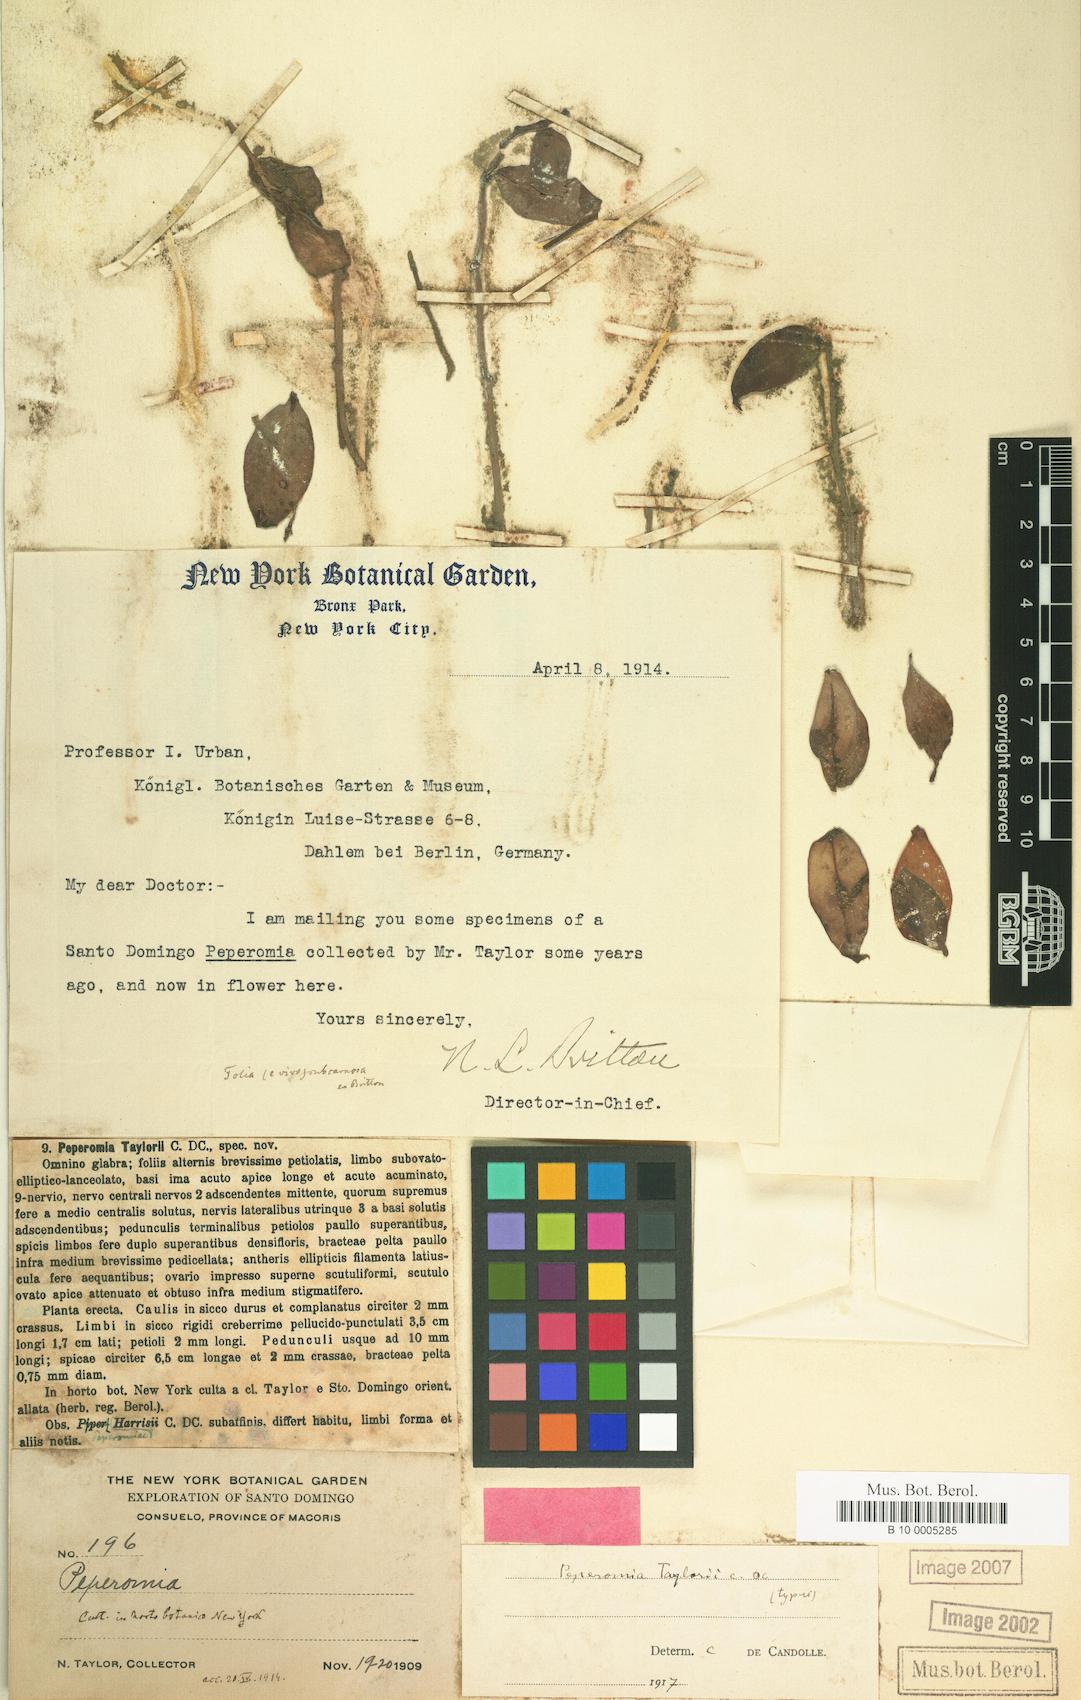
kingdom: Plantae
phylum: Tracheophyta
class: Magnoliopsida
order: Piperales
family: Piperaceae
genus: Peperomia
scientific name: Peperomia glabella
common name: Cypress peperomia
